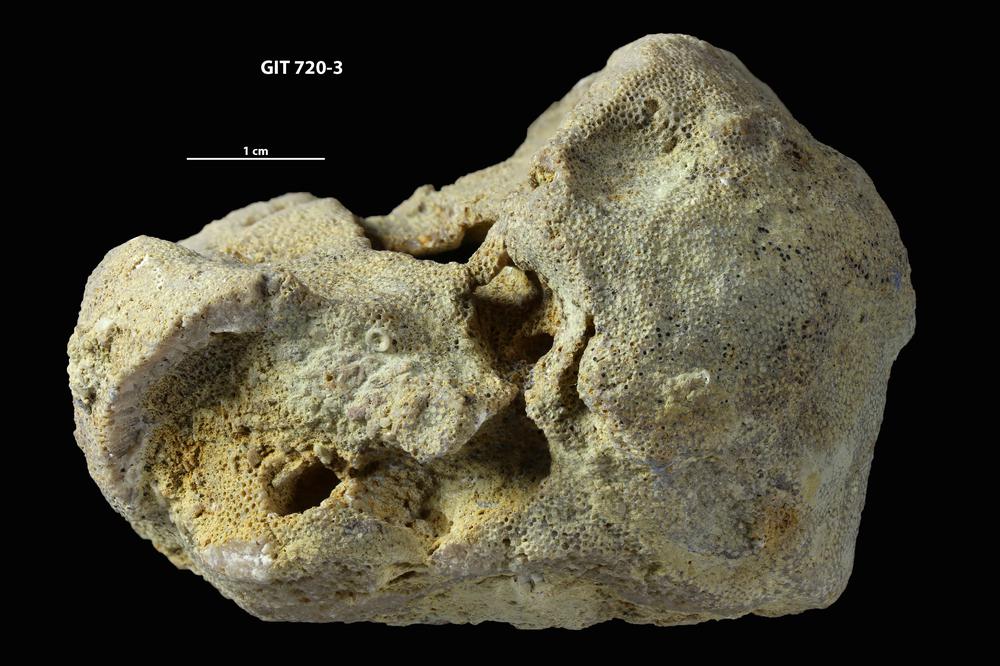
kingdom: Animalia
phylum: Bryozoa
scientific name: Bryozoa
